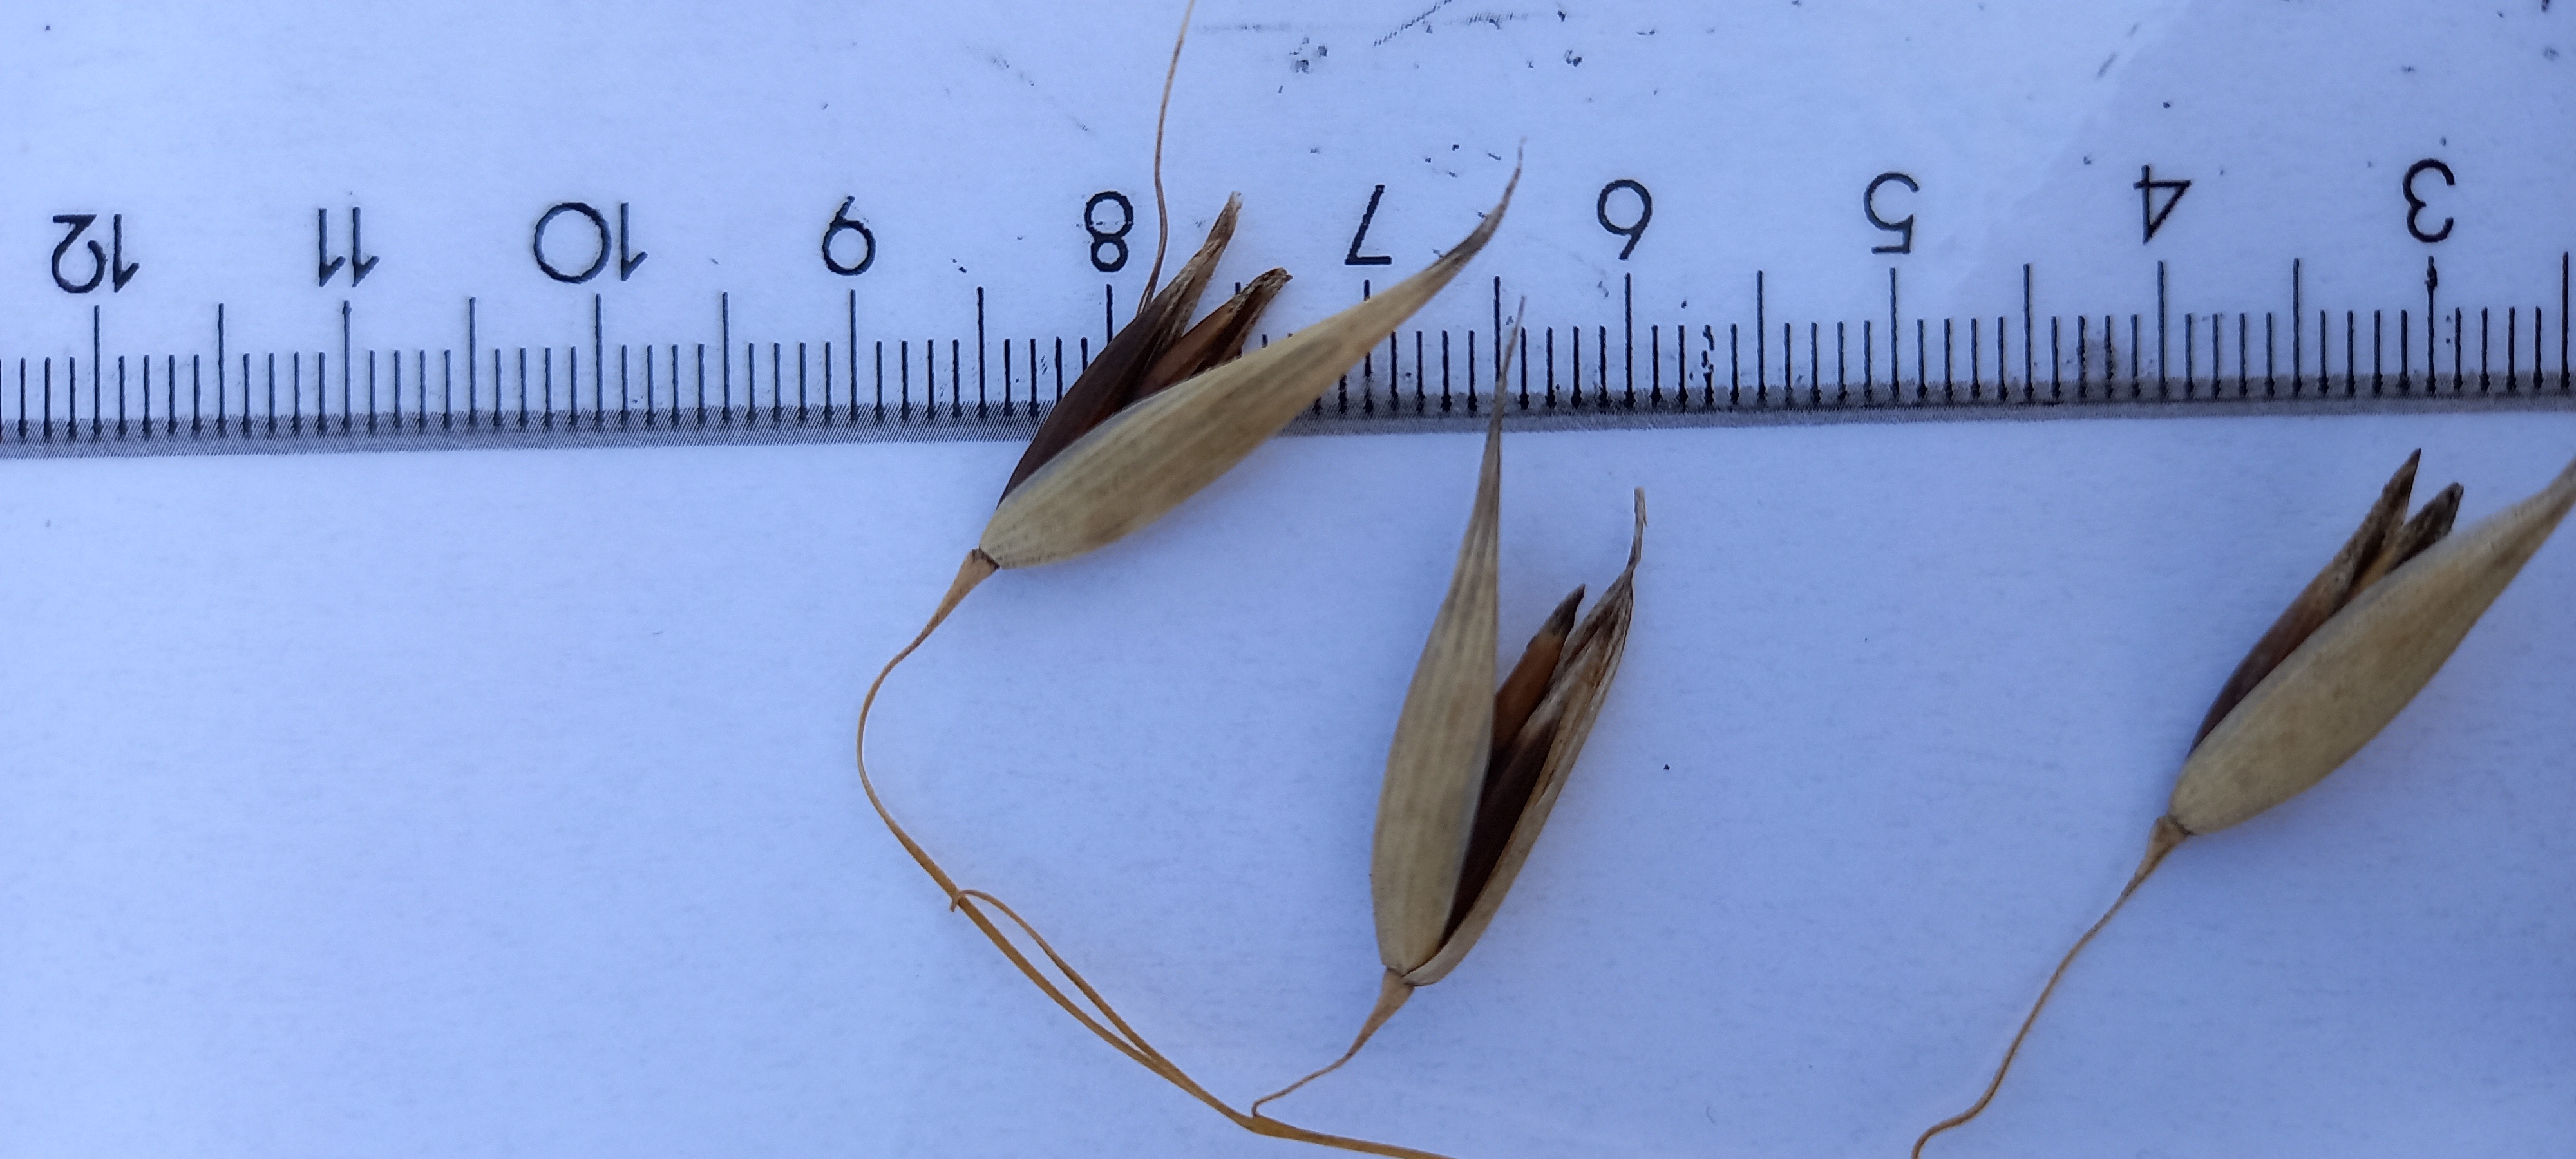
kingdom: Plantae
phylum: Tracheophyta
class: Liliopsida
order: Poales
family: Poaceae
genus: Avena
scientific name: Avena sativa
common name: Oat
